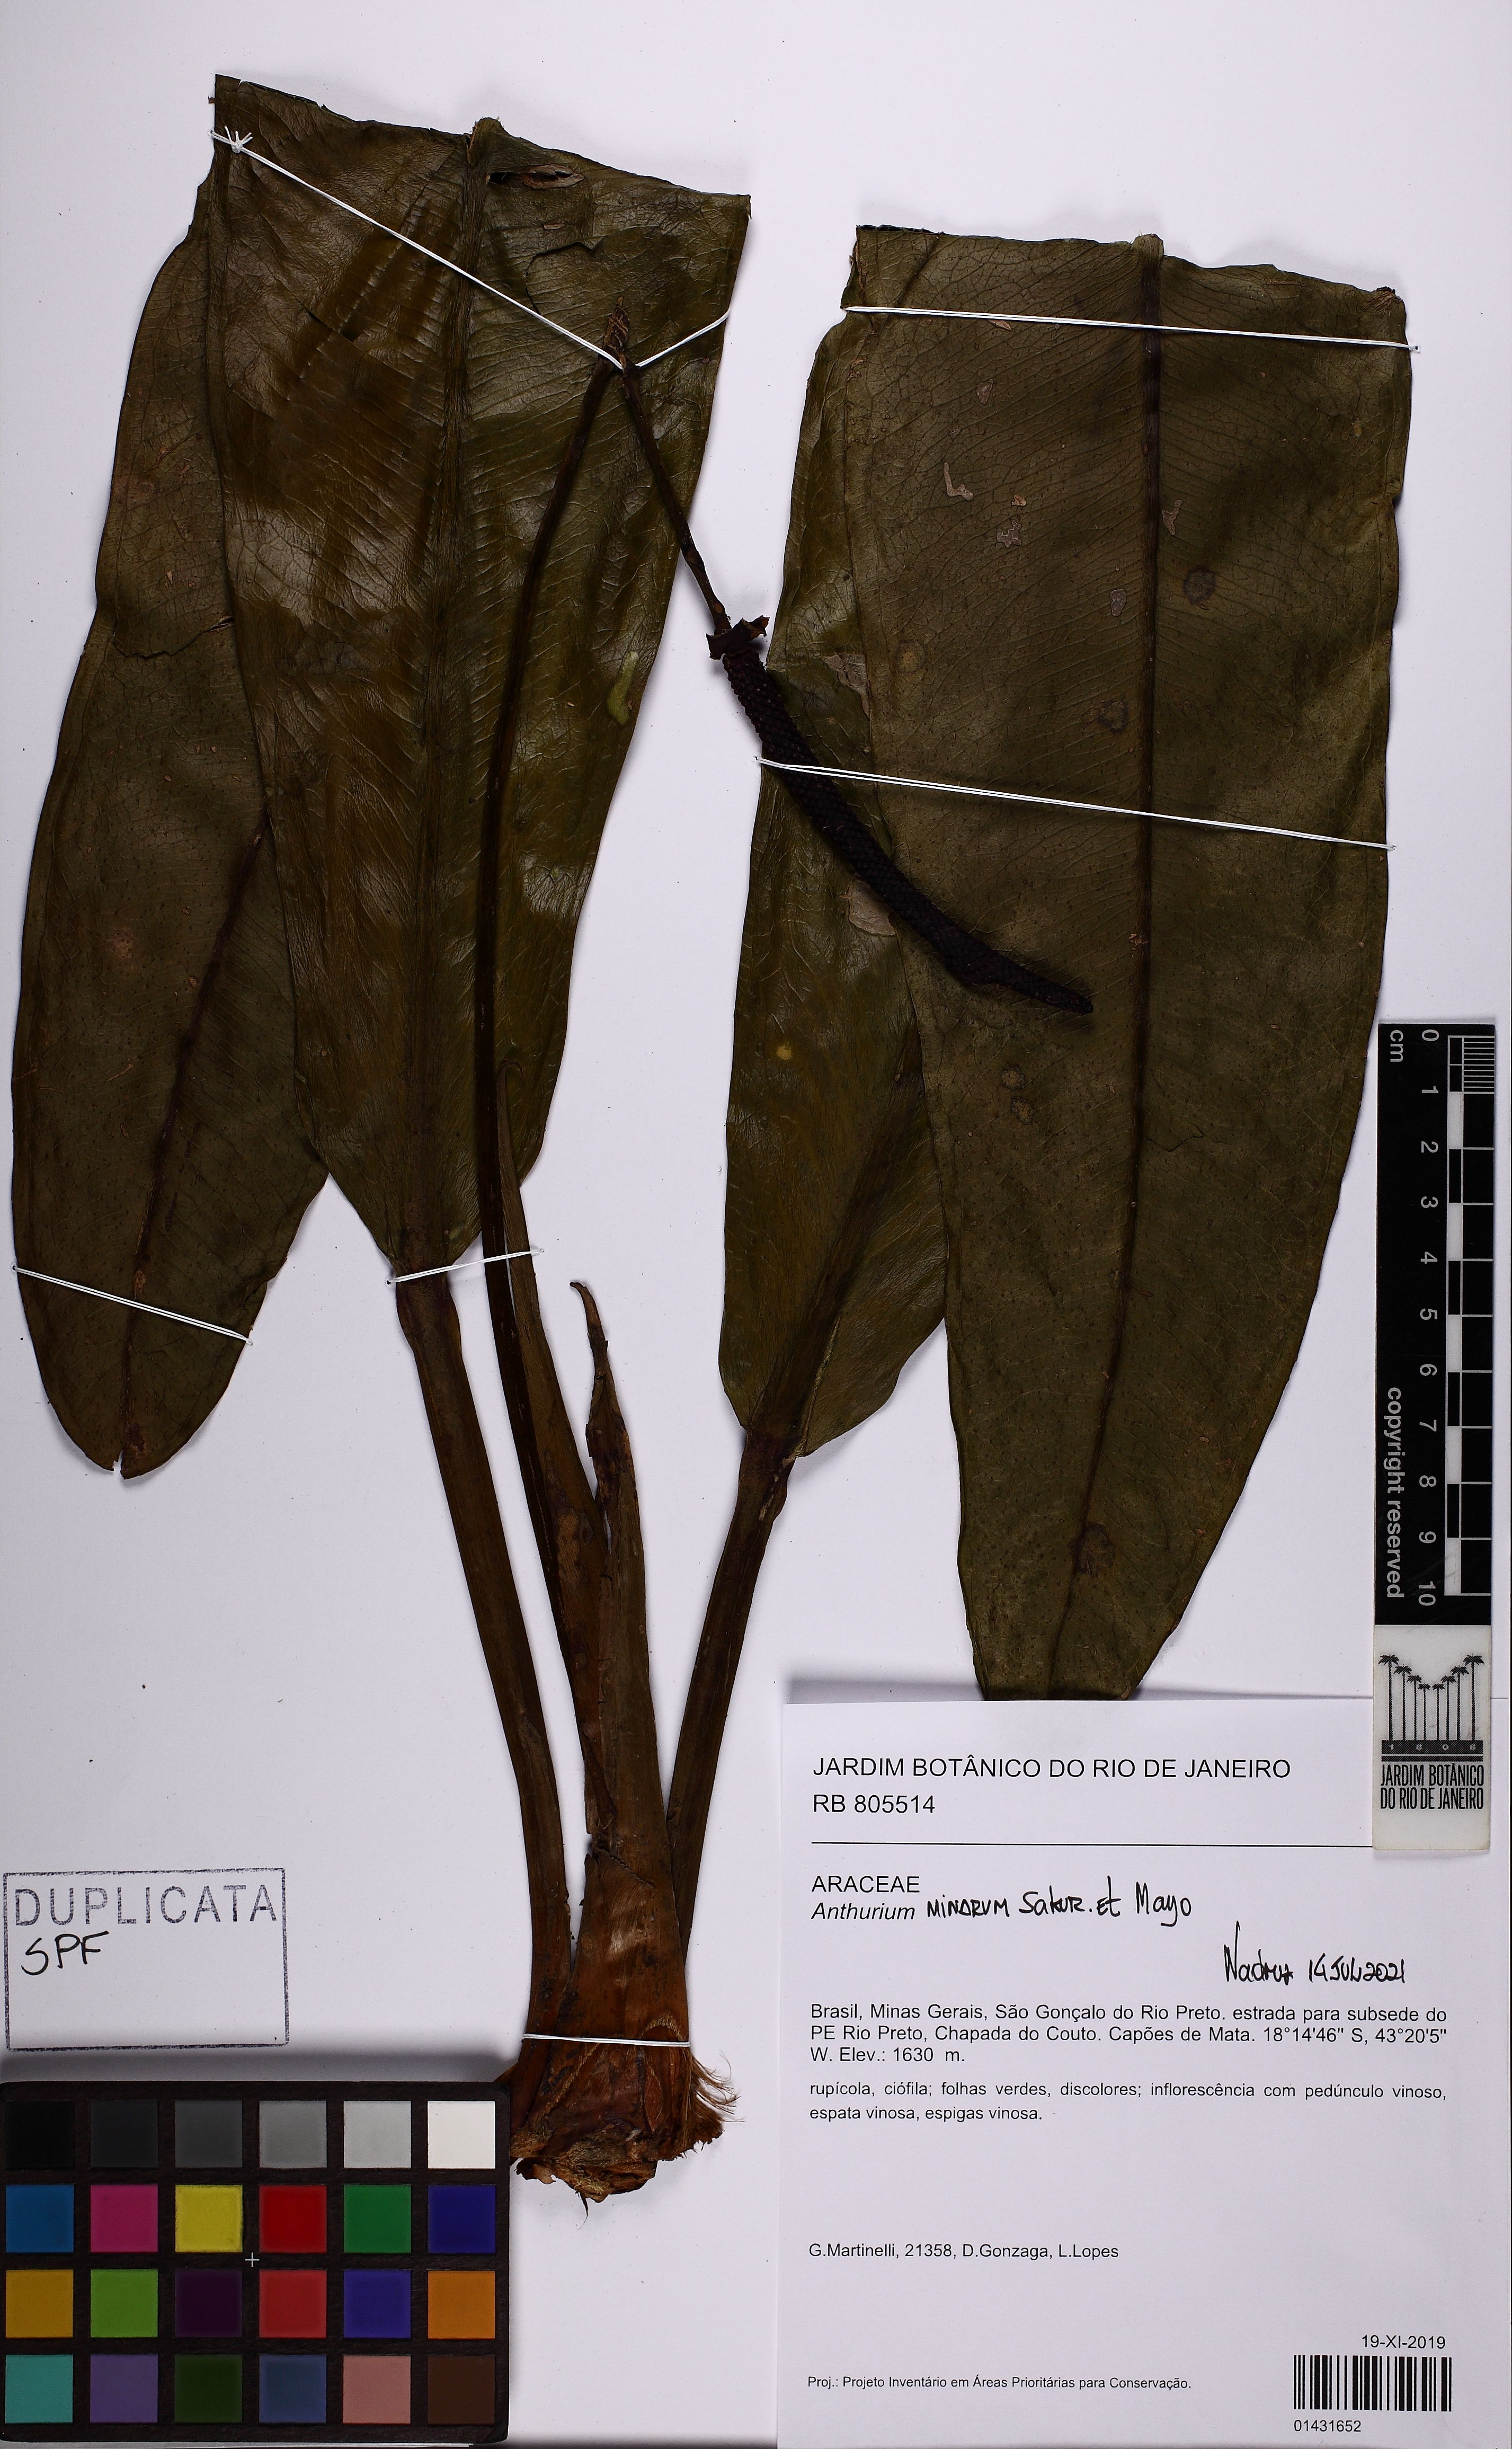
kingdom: Plantae
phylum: Tracheophyta
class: Liliopsida
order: Alismatales
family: Araceae
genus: Anthurium
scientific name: Anthurium minarum
